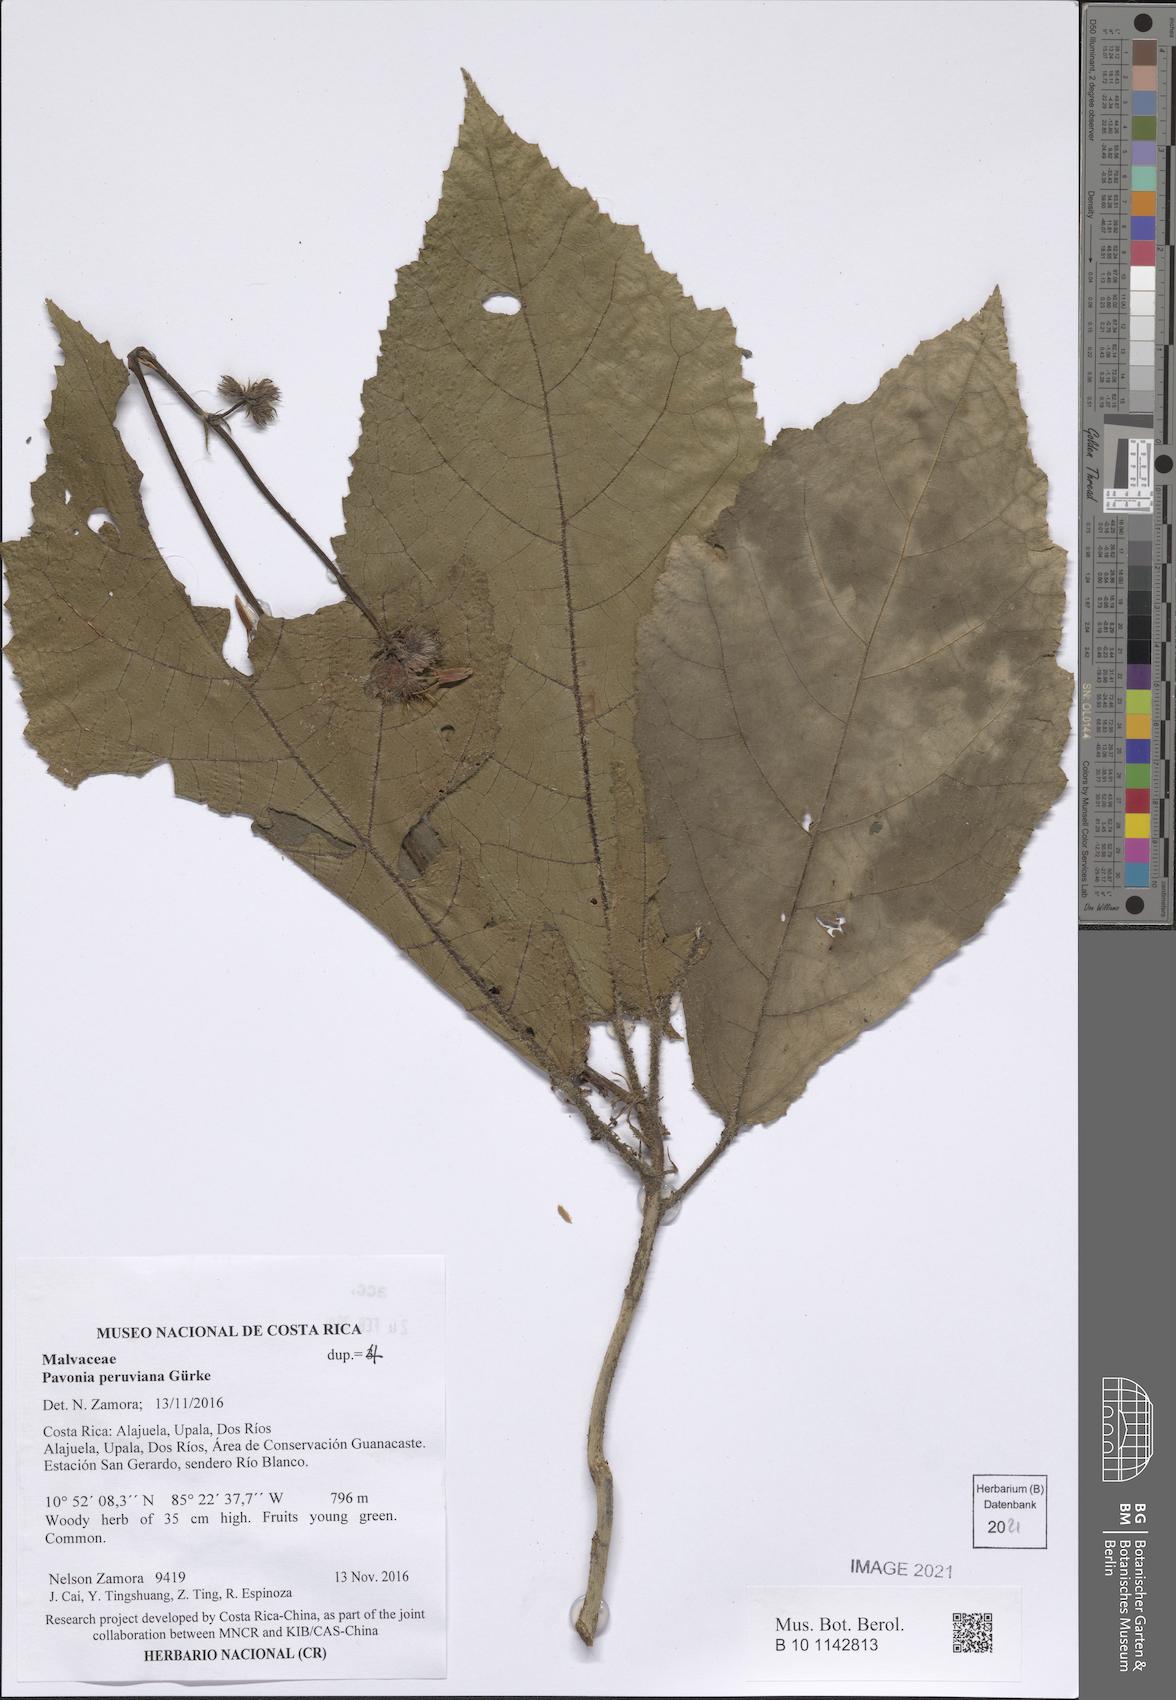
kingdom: Plantae
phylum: Tracheophyta
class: Magnoliopsida
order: Malvales
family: Malvaceae
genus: Pavonia
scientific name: Pavonia peruviana
